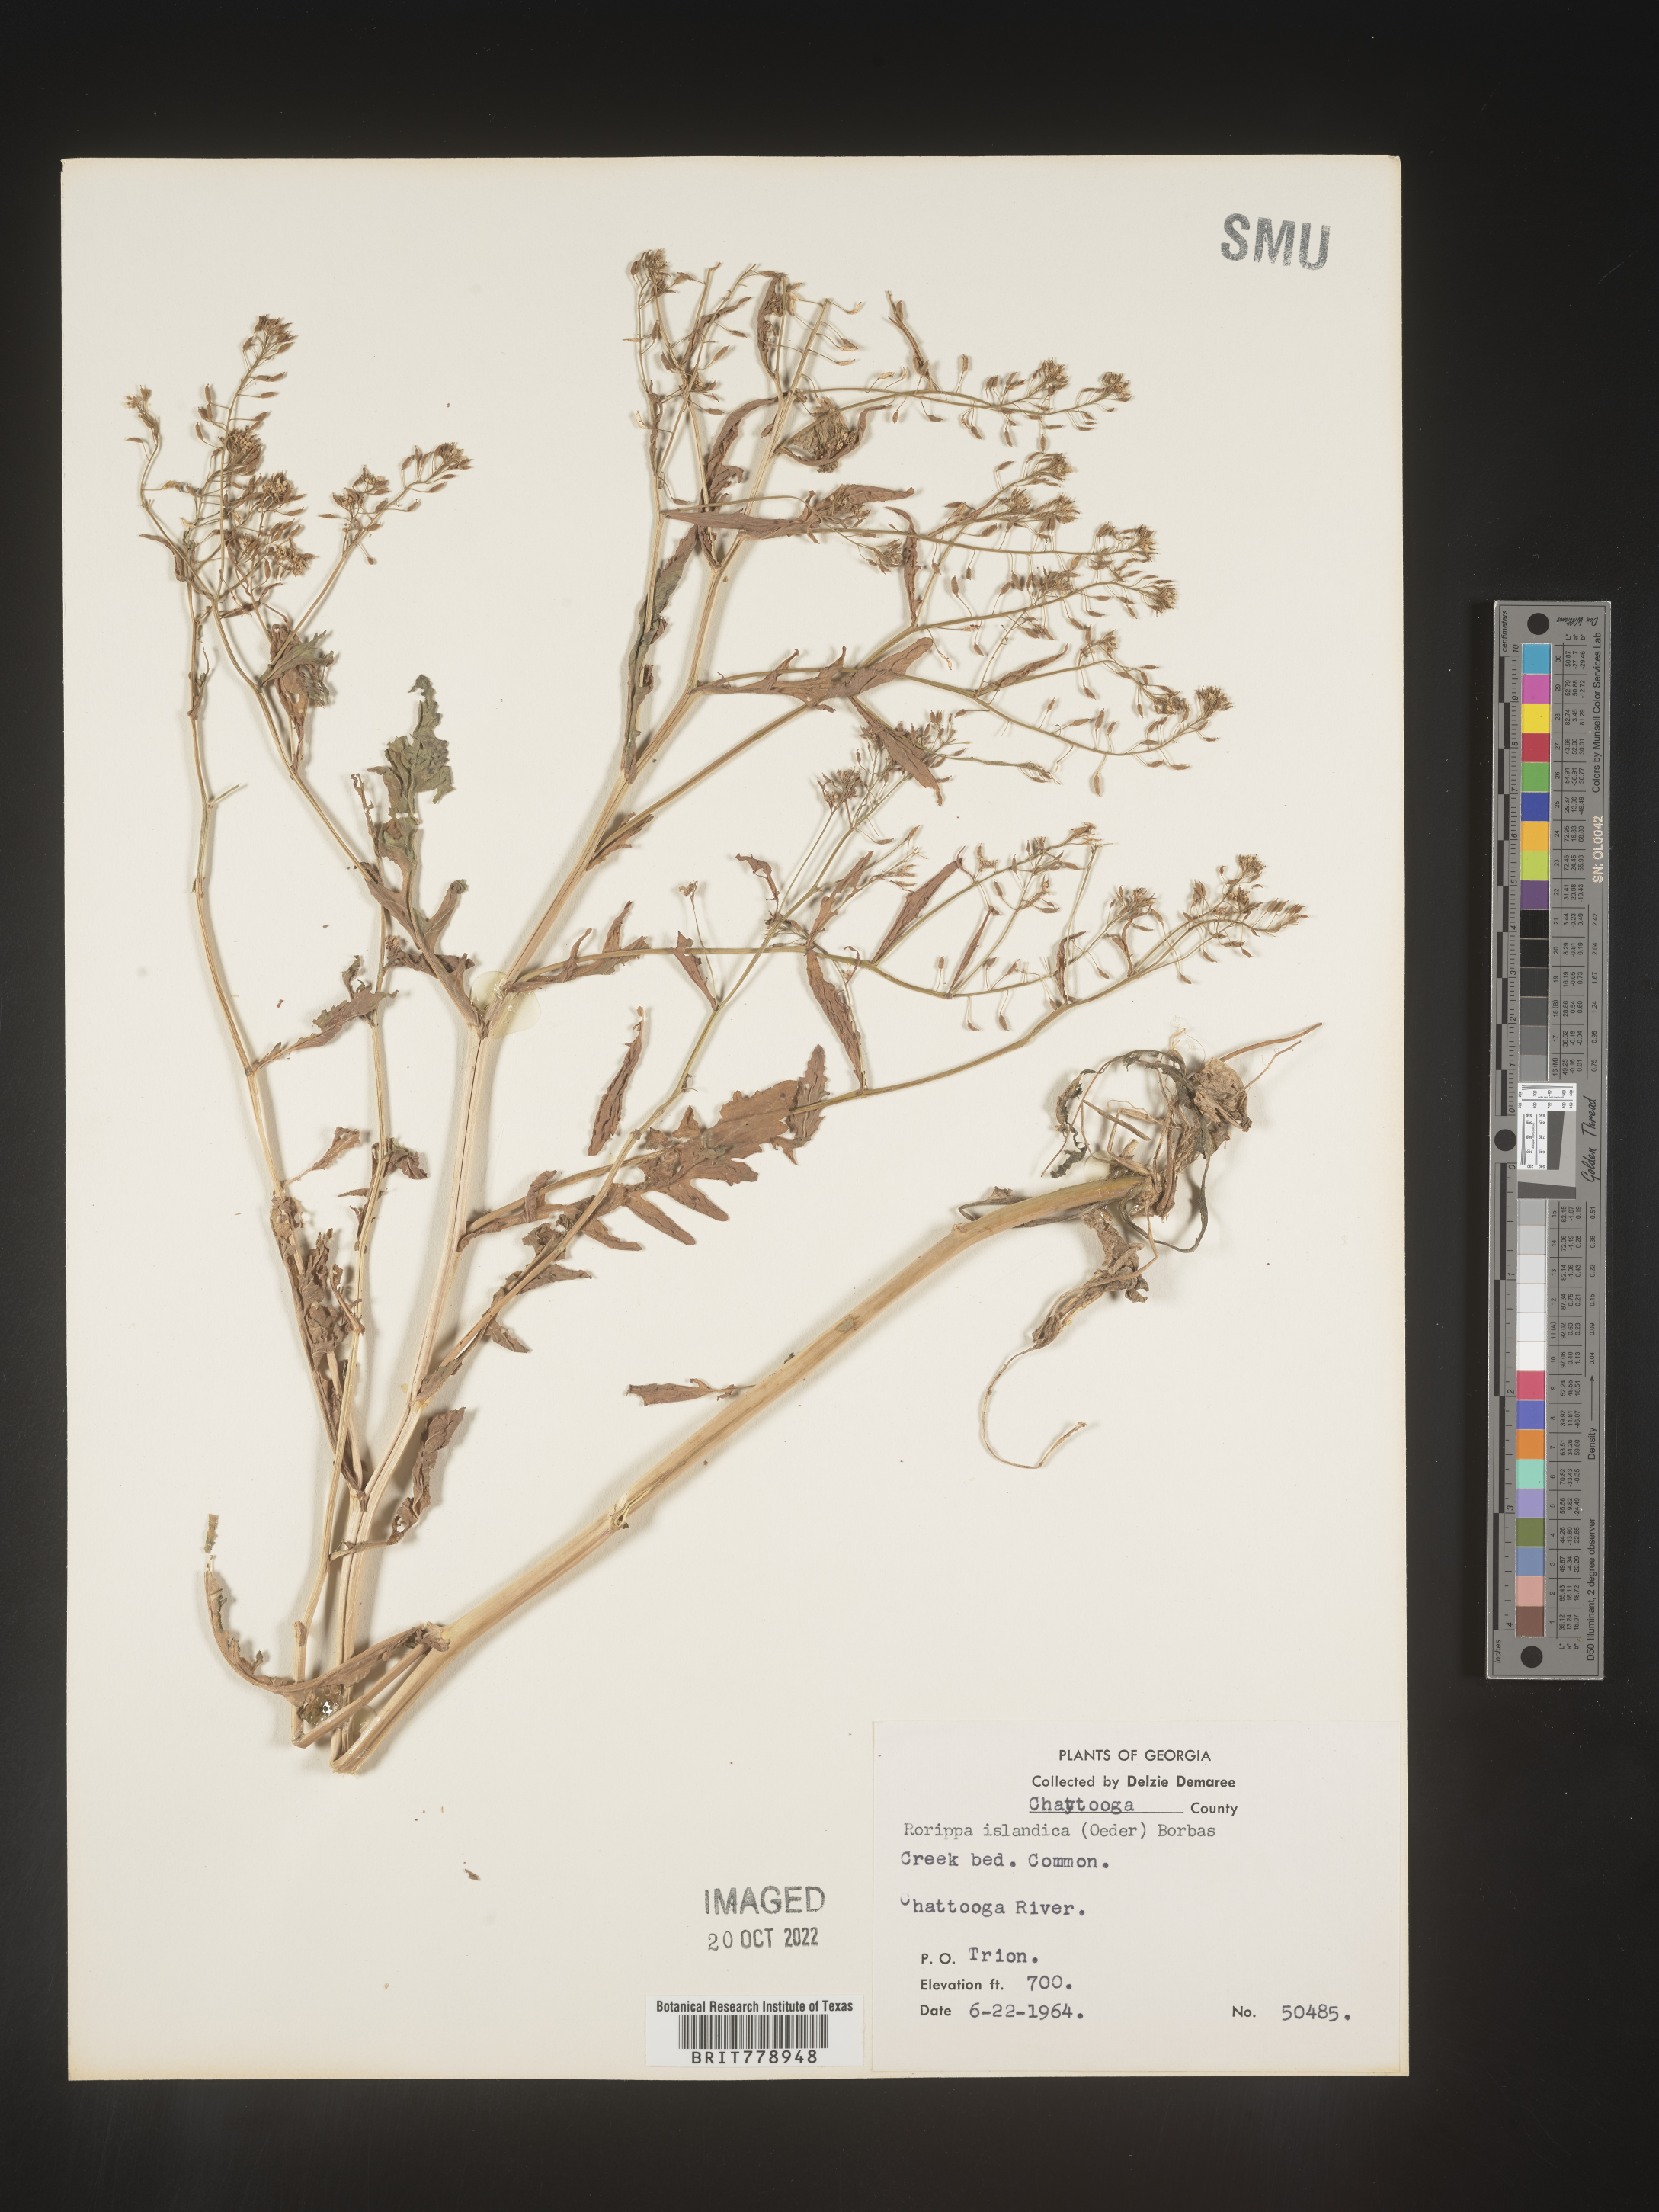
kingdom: Plantae
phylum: Tracheophyta
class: Magnoliopsida
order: Brassicales
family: Brassicaceae
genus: Rorippa
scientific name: Rorippa palustris
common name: Marsh yellow-cress
